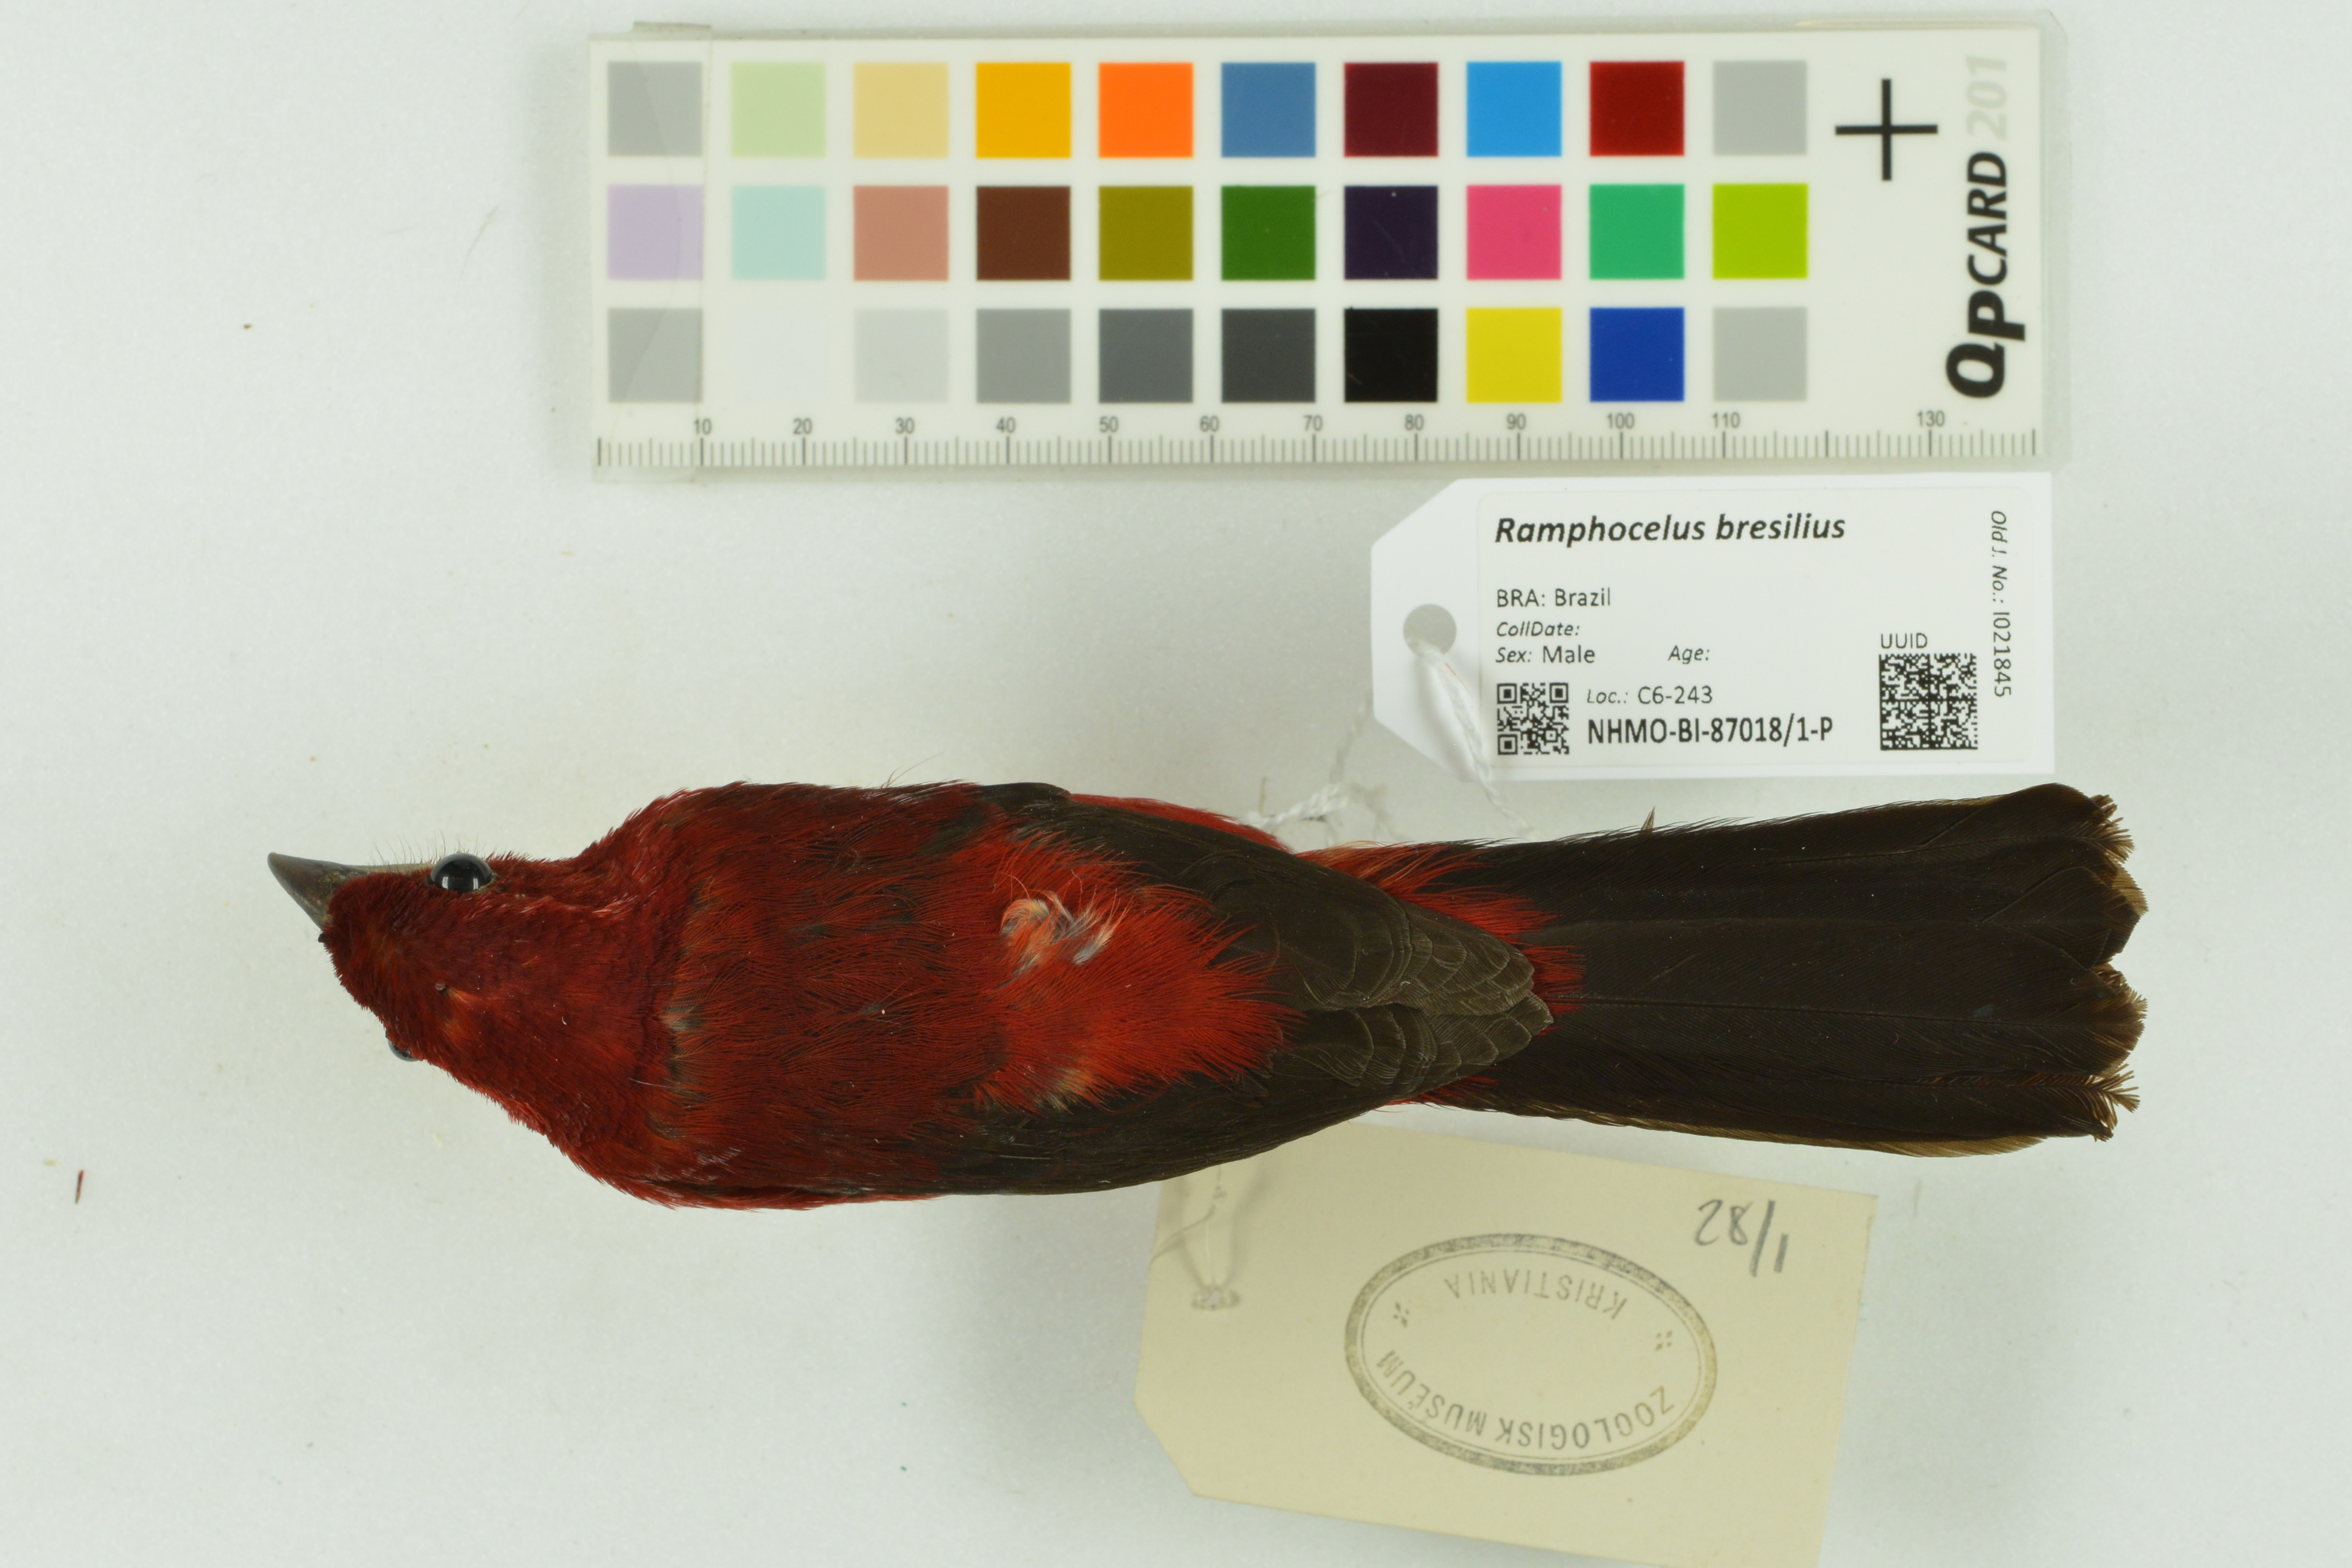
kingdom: Animalia
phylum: Chordata
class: Aves
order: Passeriformes
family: Thraupidae
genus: Ramphocelus
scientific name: Ramphocelus bresilia
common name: Brazilian tanager
